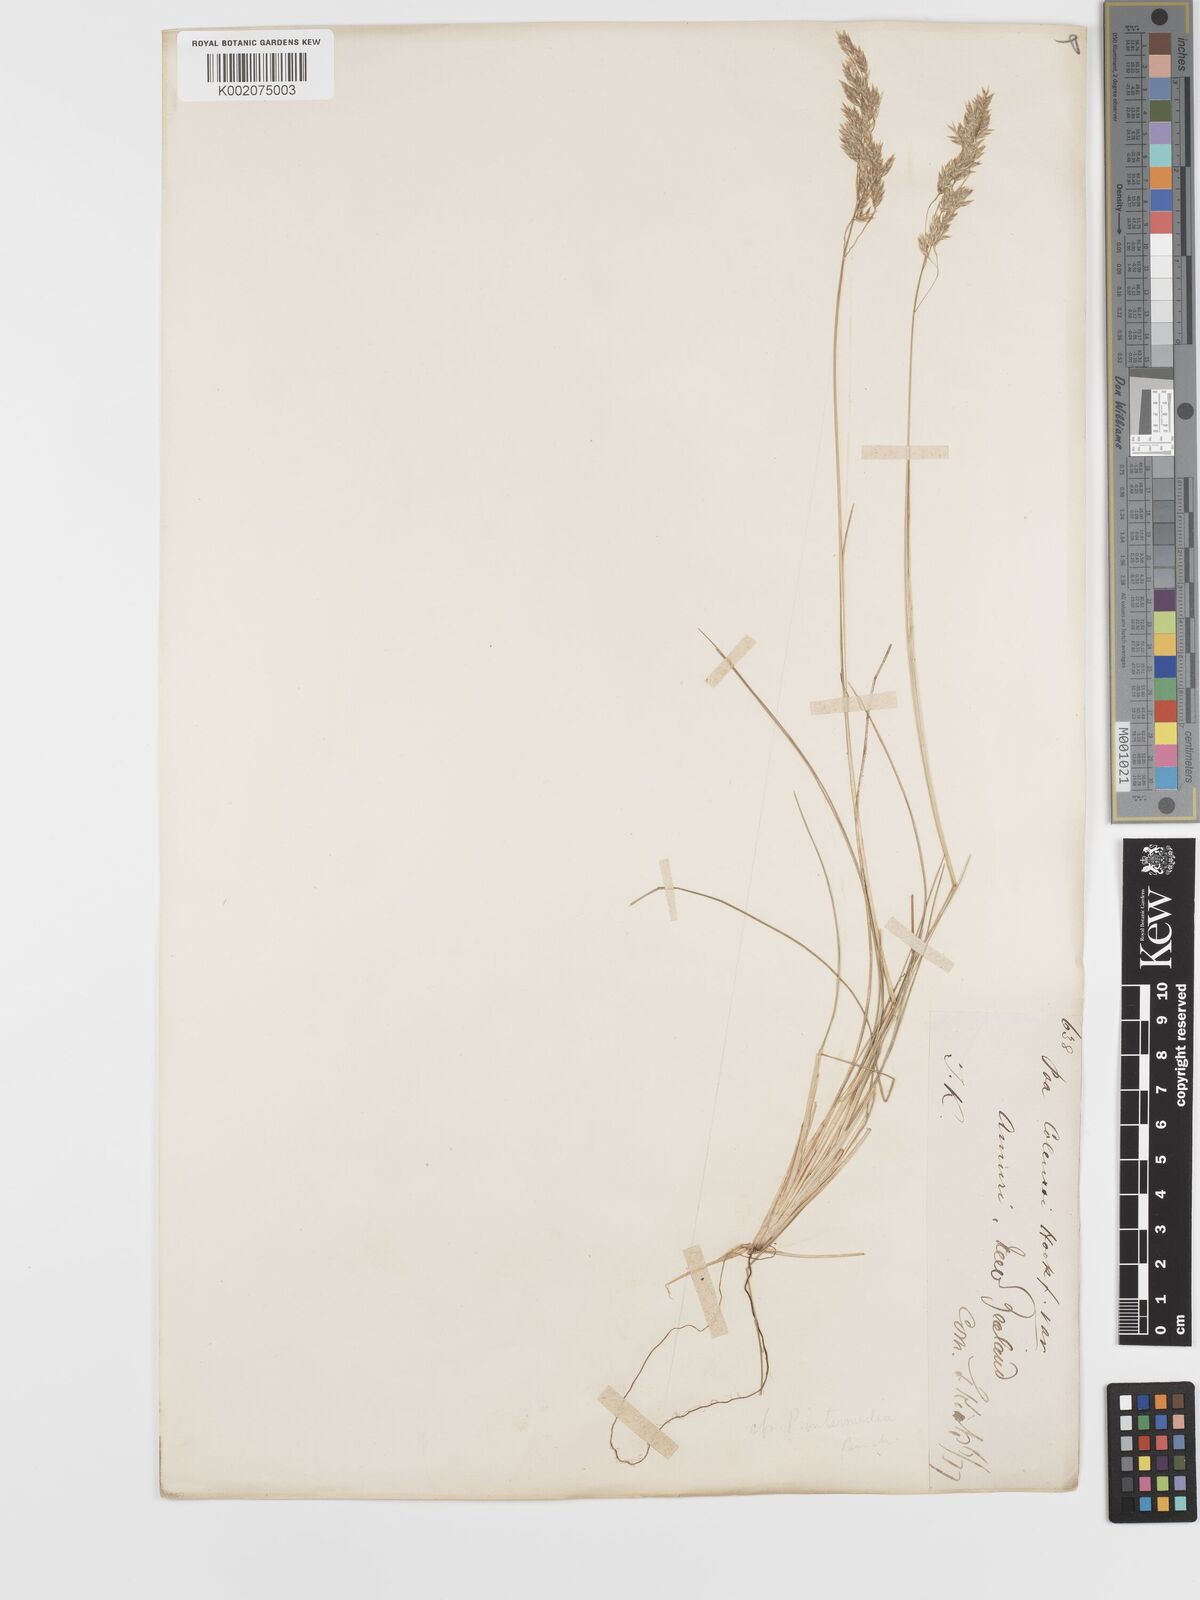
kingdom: Plantae
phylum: Tracheophyta
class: Liliopsida
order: Poales
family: Poaceae
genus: Poa
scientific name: Poa colensoi
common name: Blue tussock
